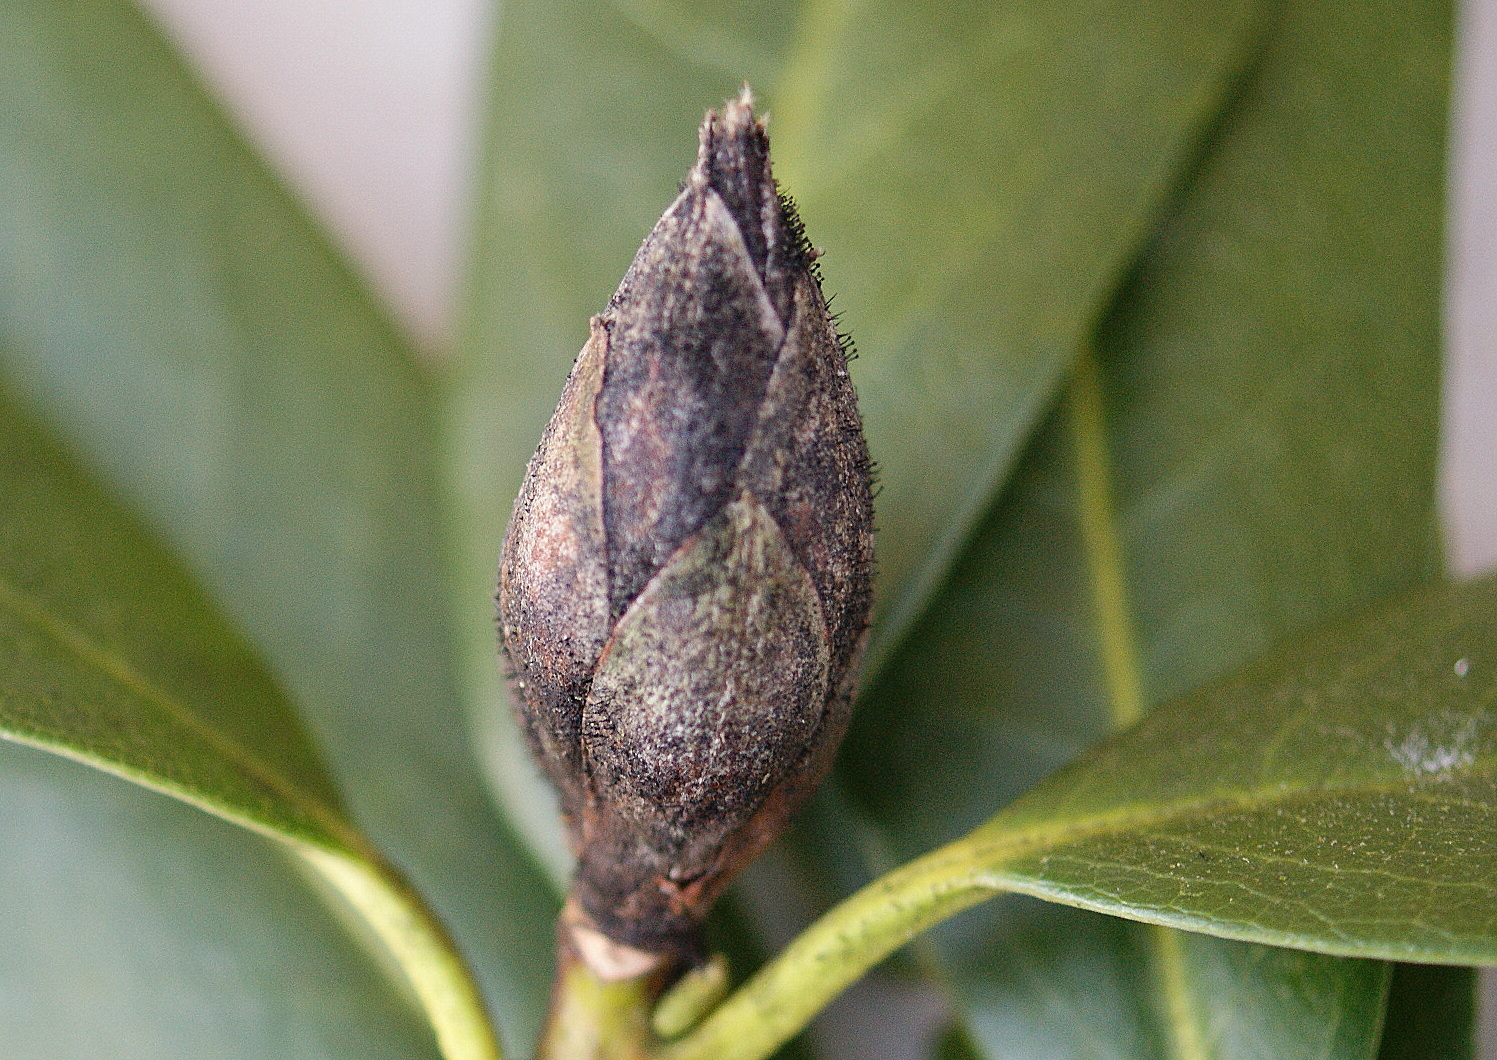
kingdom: Fungi
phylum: Ascomycota
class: Dothideomycetes
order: Pleosporales
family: Melanommataceae
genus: Seifertia
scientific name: Seifertia azaleae
